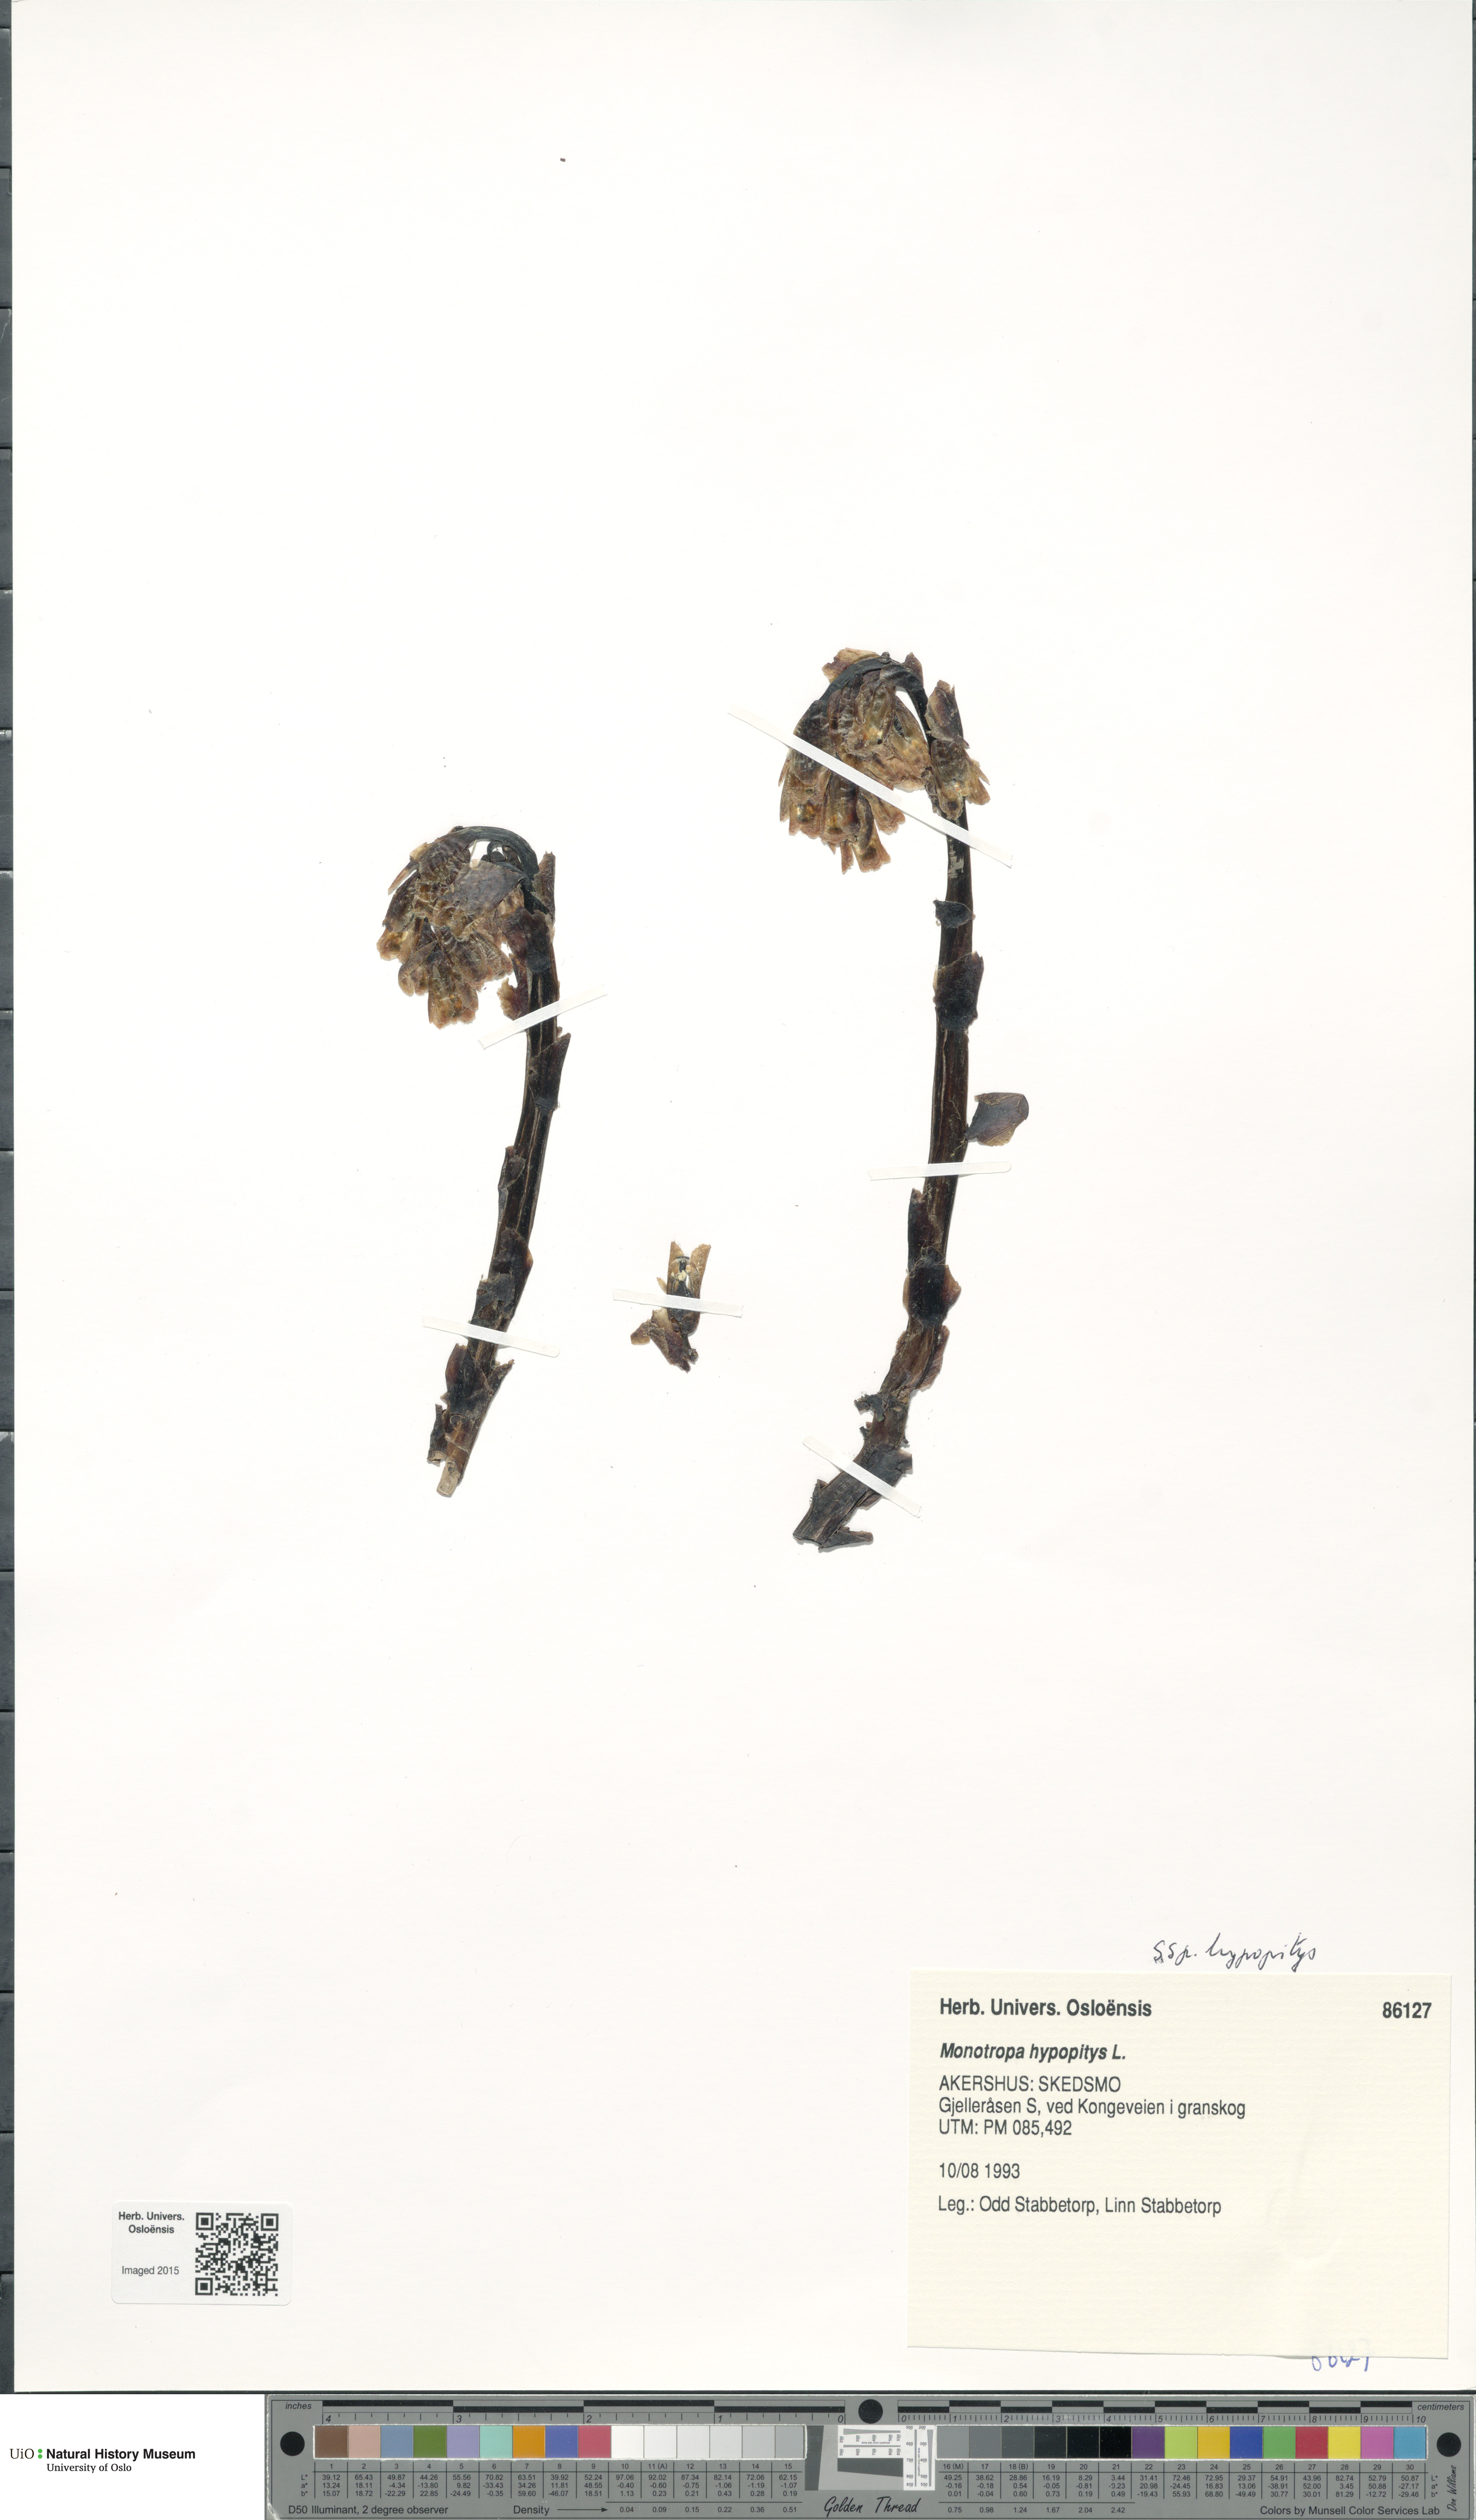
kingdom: Plantae
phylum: Tracheophyta
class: Magnoliopsida
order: Ericales
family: Ericaceae
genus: Hypopitys
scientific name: Hypopitys monotropa
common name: Yellow bird's-nest
